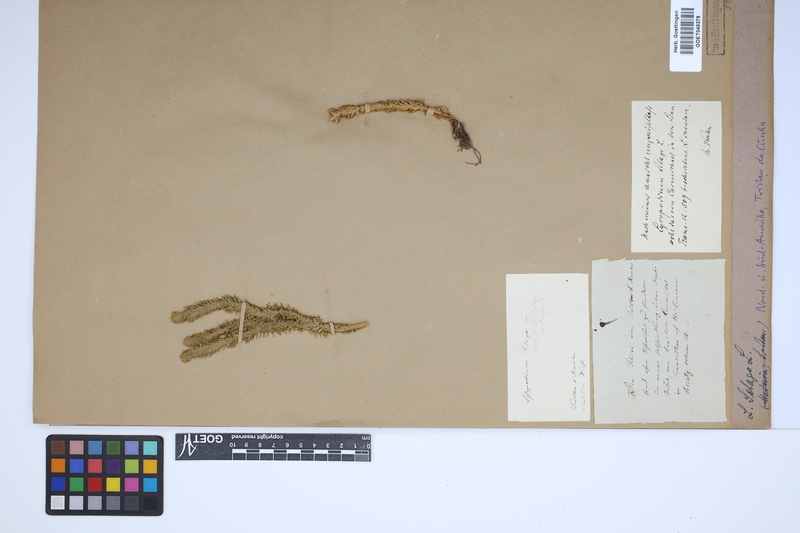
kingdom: Plantae
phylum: Tracheophyta
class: Lycopodiopsida
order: Lycopodiales
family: Lycopodiaceae
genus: Huperzia
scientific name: Huperzia selago
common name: Northern firmoss
